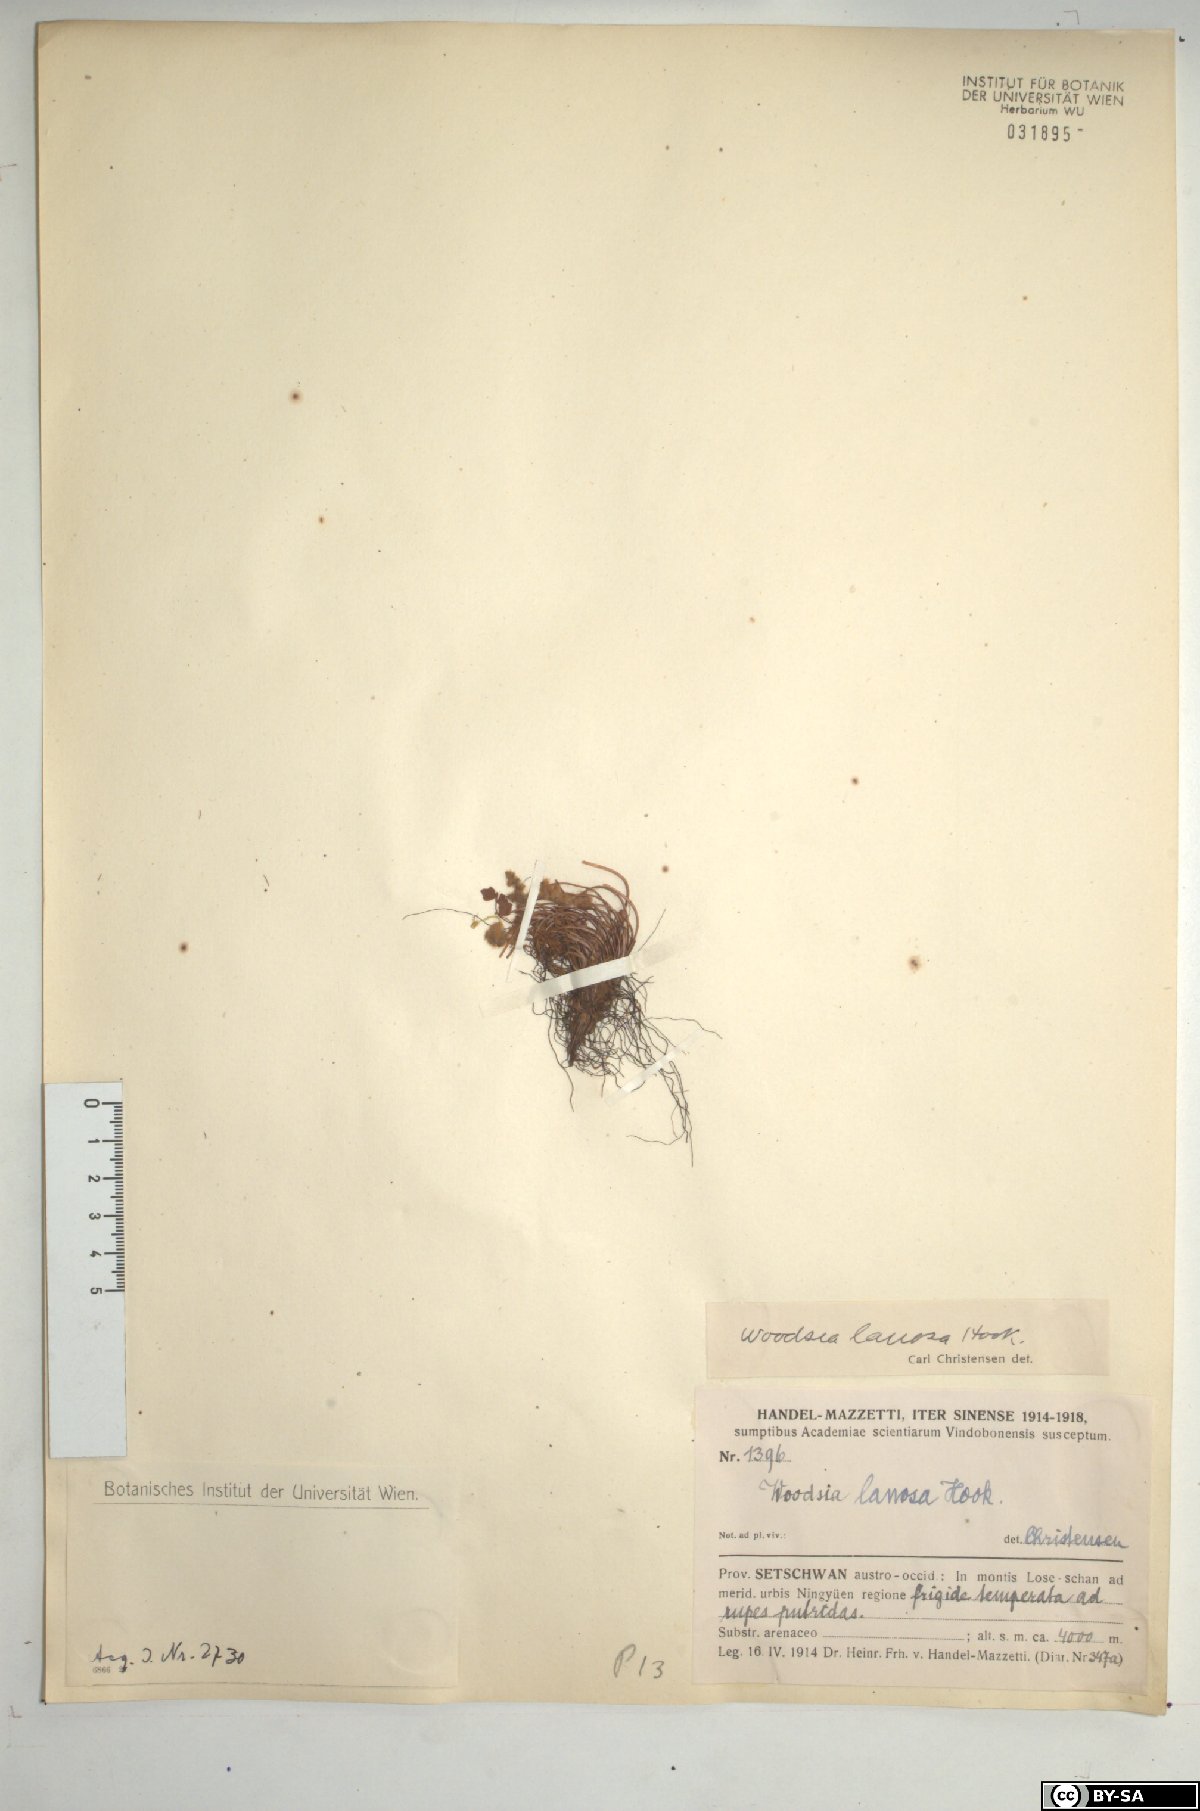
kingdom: Plantae
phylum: Tracheophyta
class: Polypodiopsida
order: Polypodiales
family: Woodsiaceae
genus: Woodsia
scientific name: Woodsia lanosa
